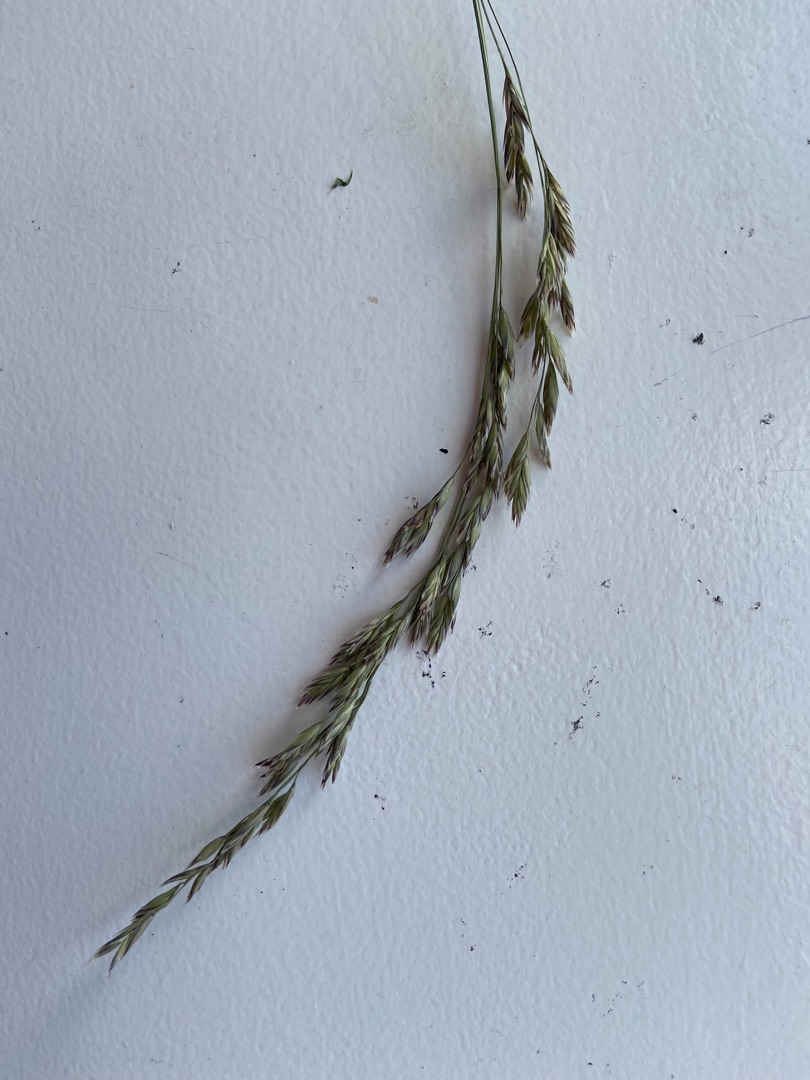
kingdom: Plantae
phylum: Tracheophyta
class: Liliopsida
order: Poales
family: Poaceae
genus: Lolium
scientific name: Lolium pratense
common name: Eng-svingel
